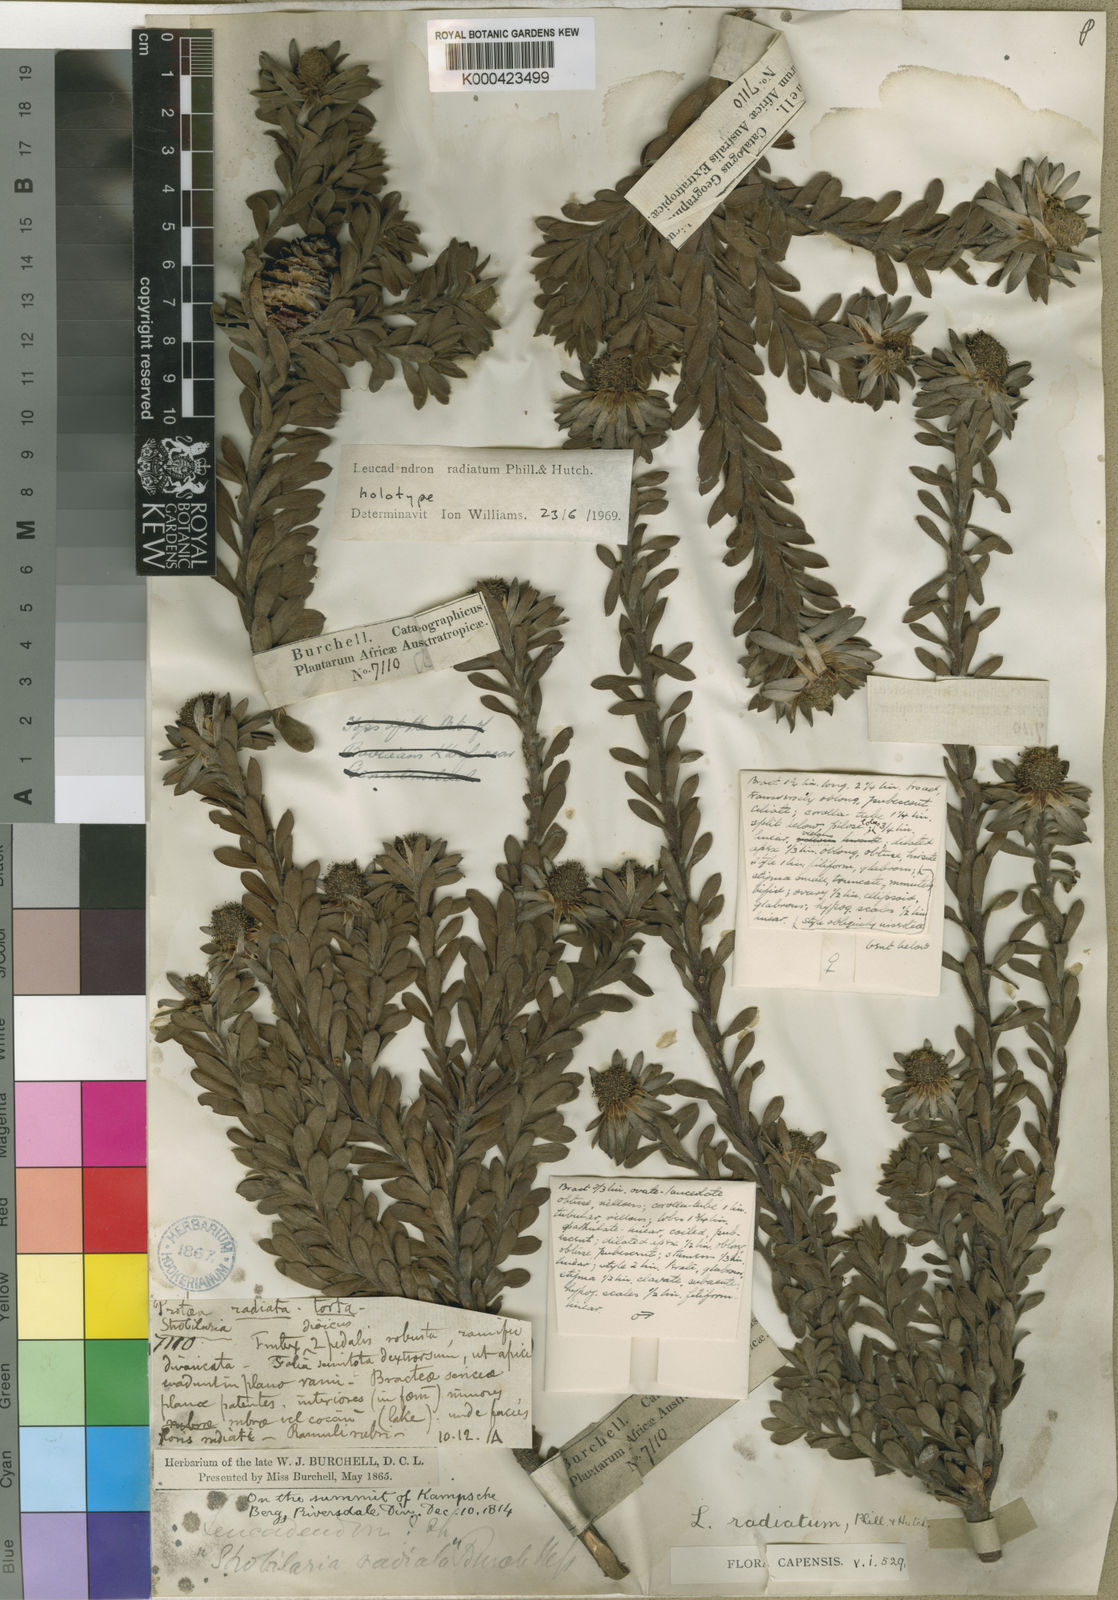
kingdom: Plantae
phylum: Tracheophyta
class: Magnoliopsida
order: Proteales
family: Proteaceae
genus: Leucadendron
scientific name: Leucadendron radiatum
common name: Langeberg conebush
